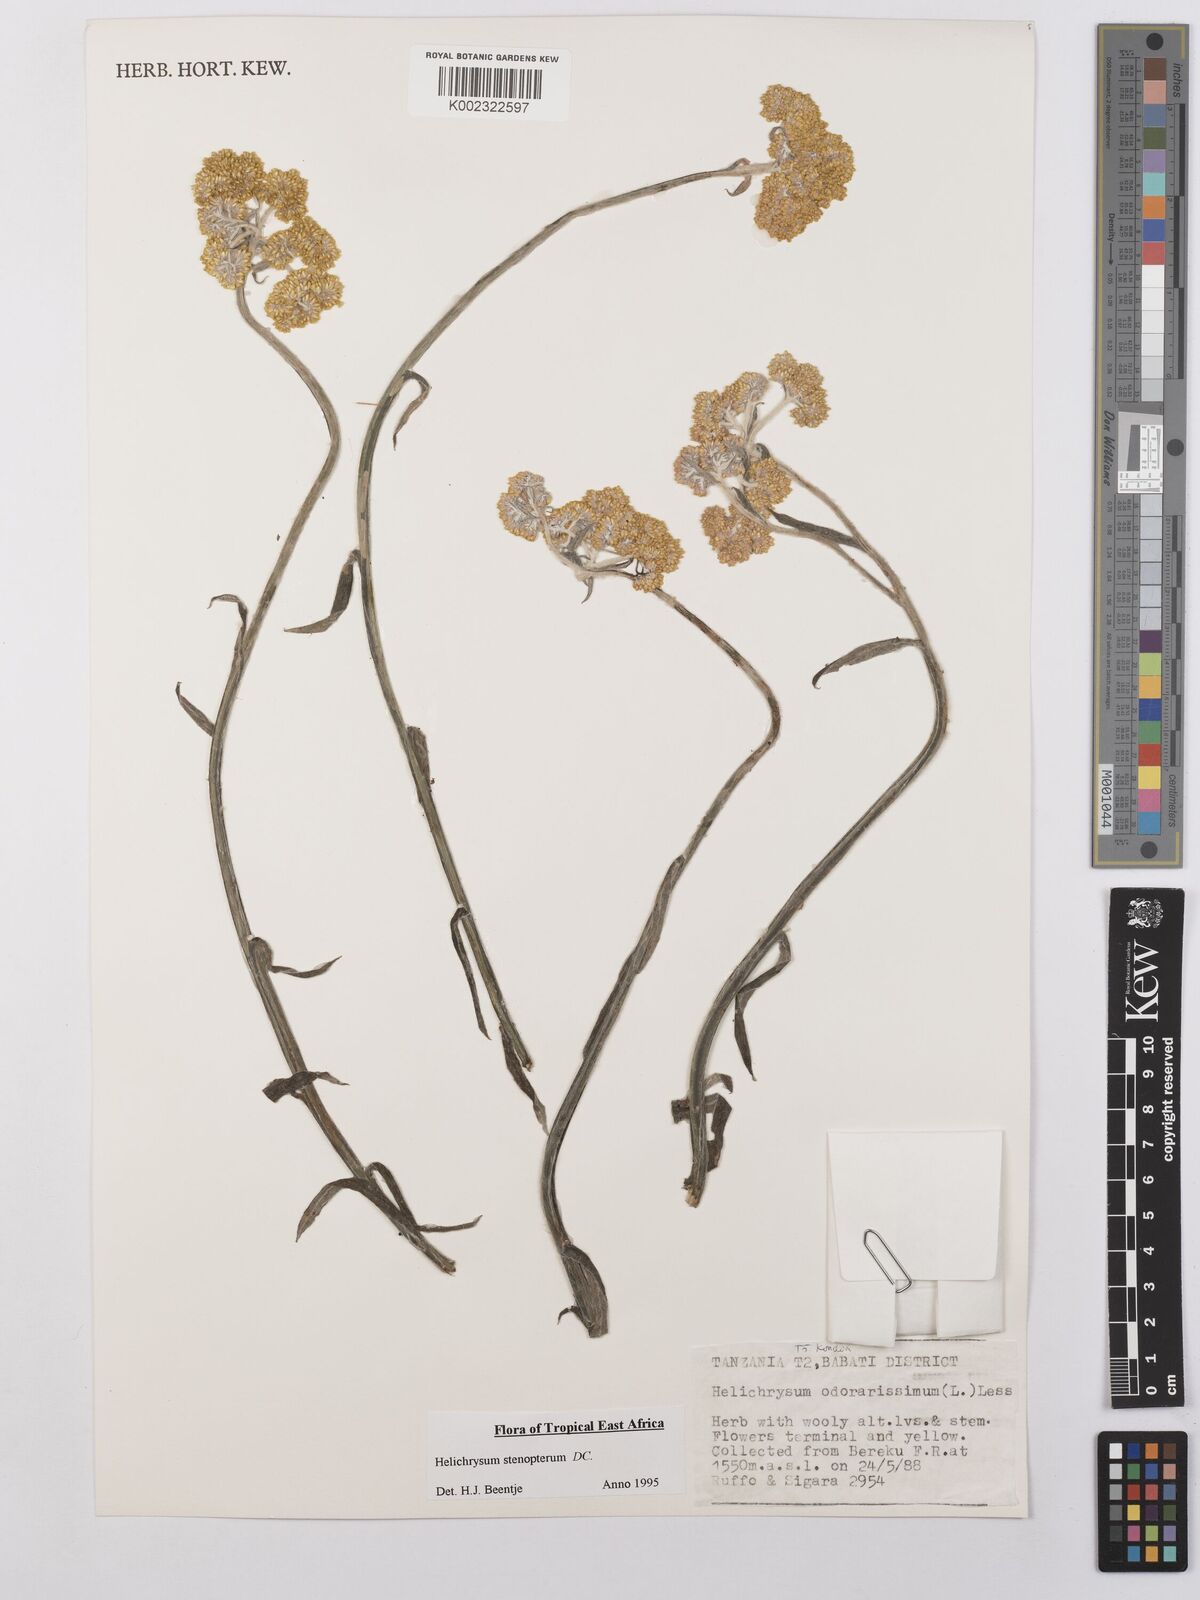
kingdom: Plantae
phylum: Tracheophyta
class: Magnoliopsida
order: Asterales
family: Asteraceae
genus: Helichrysum
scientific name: Helichrysum stenopterum
